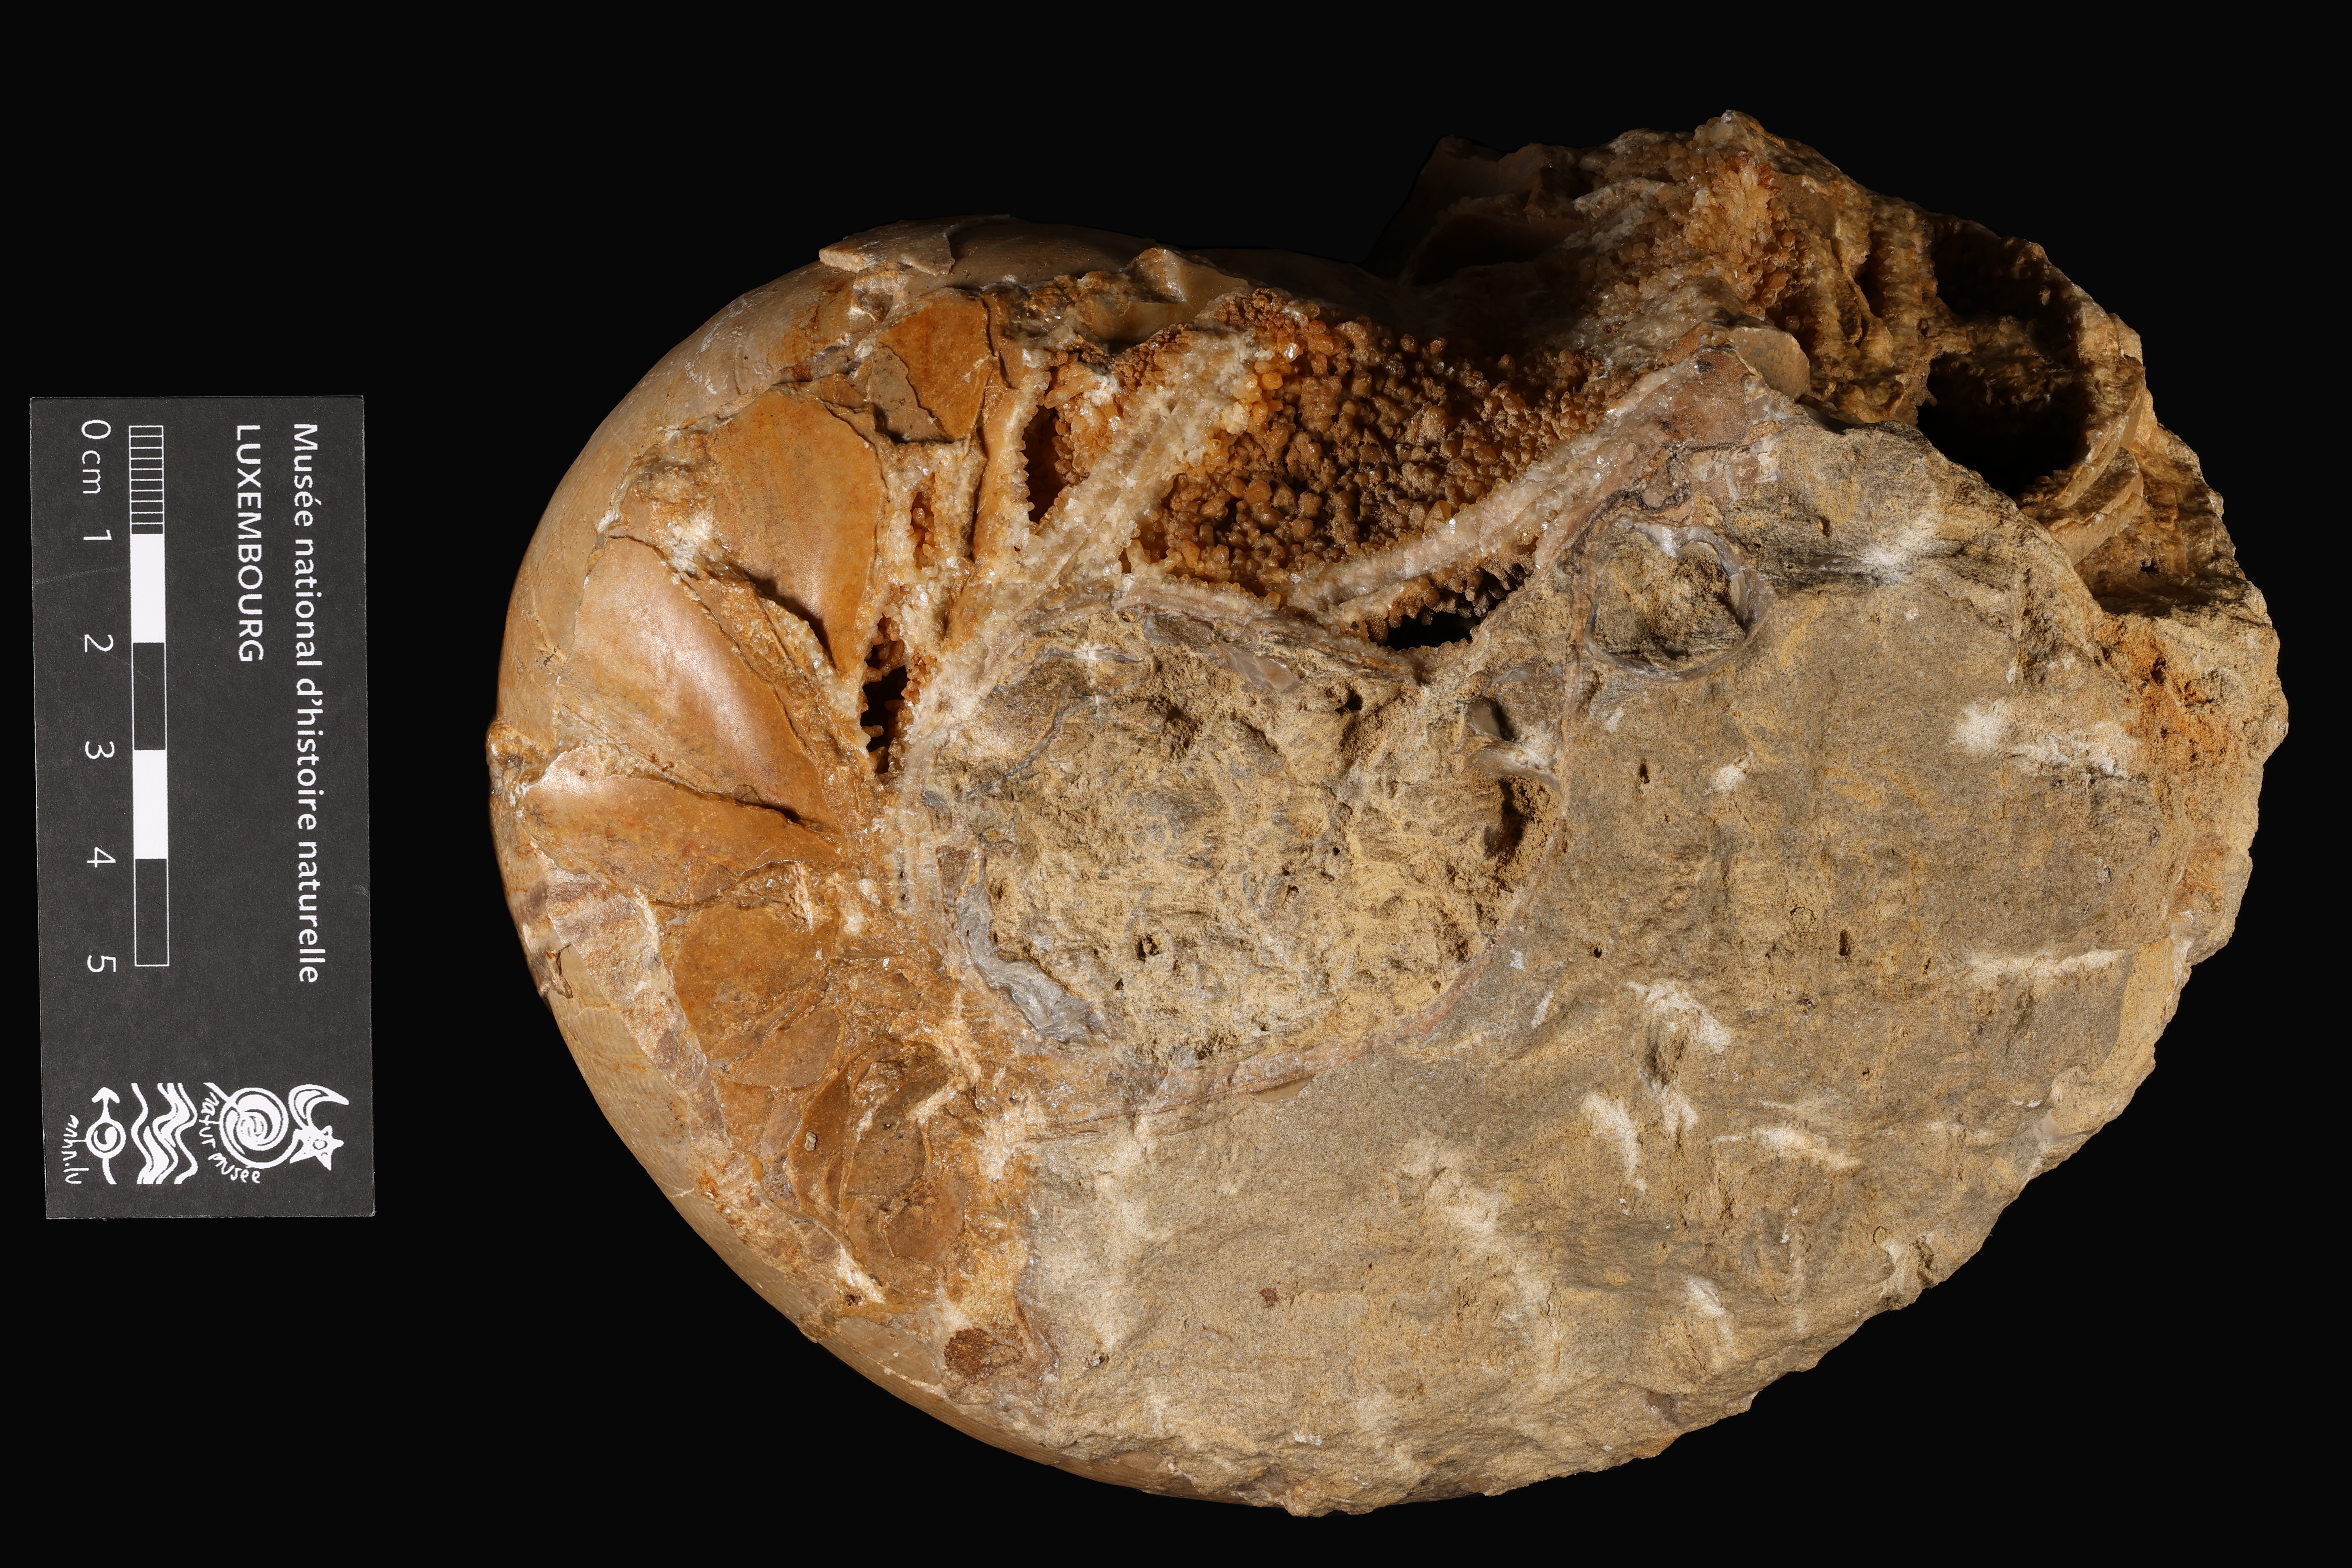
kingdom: Animalia
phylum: Mollusca
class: Cephalopoda
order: Nautilida
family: Nautilidae
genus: Cenoceras
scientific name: Cenoceras
